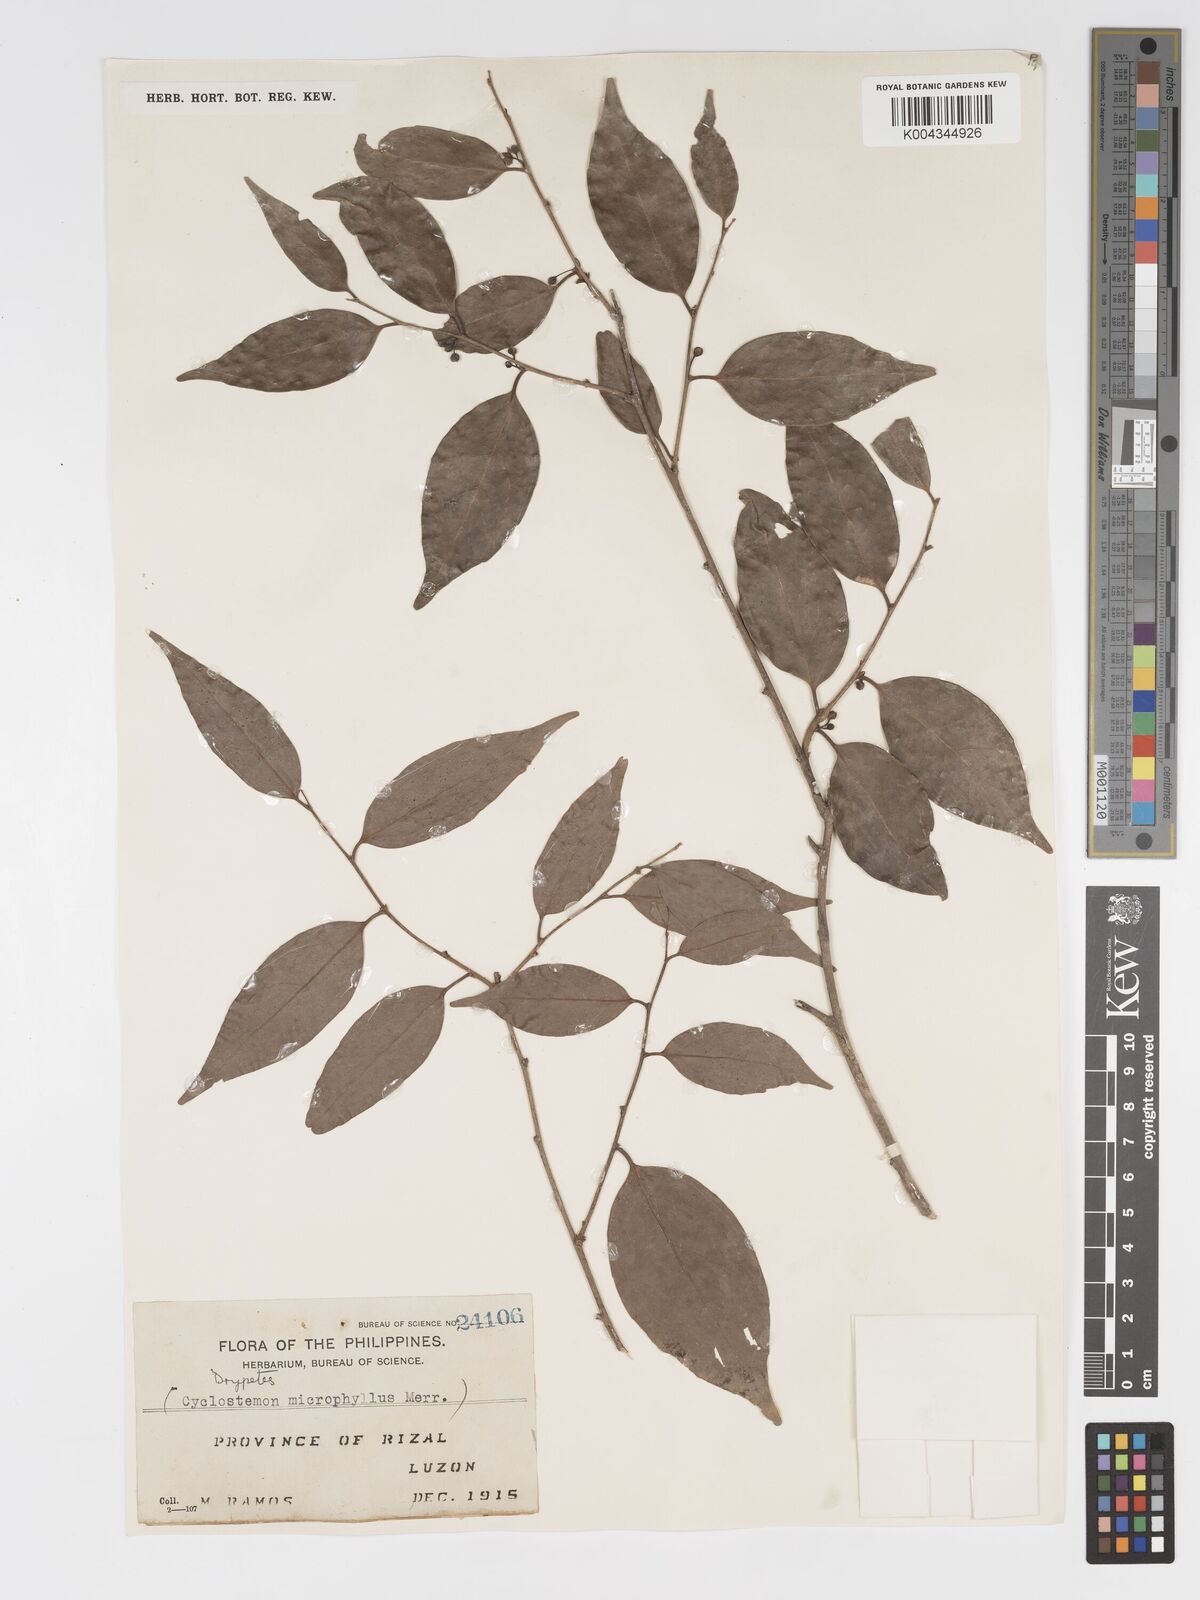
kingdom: Plantae
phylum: Tracheophyta
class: Magnoliopsida
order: Malpighiales
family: Putranjivaceae
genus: Drypetes
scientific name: Drypetes microphylla
